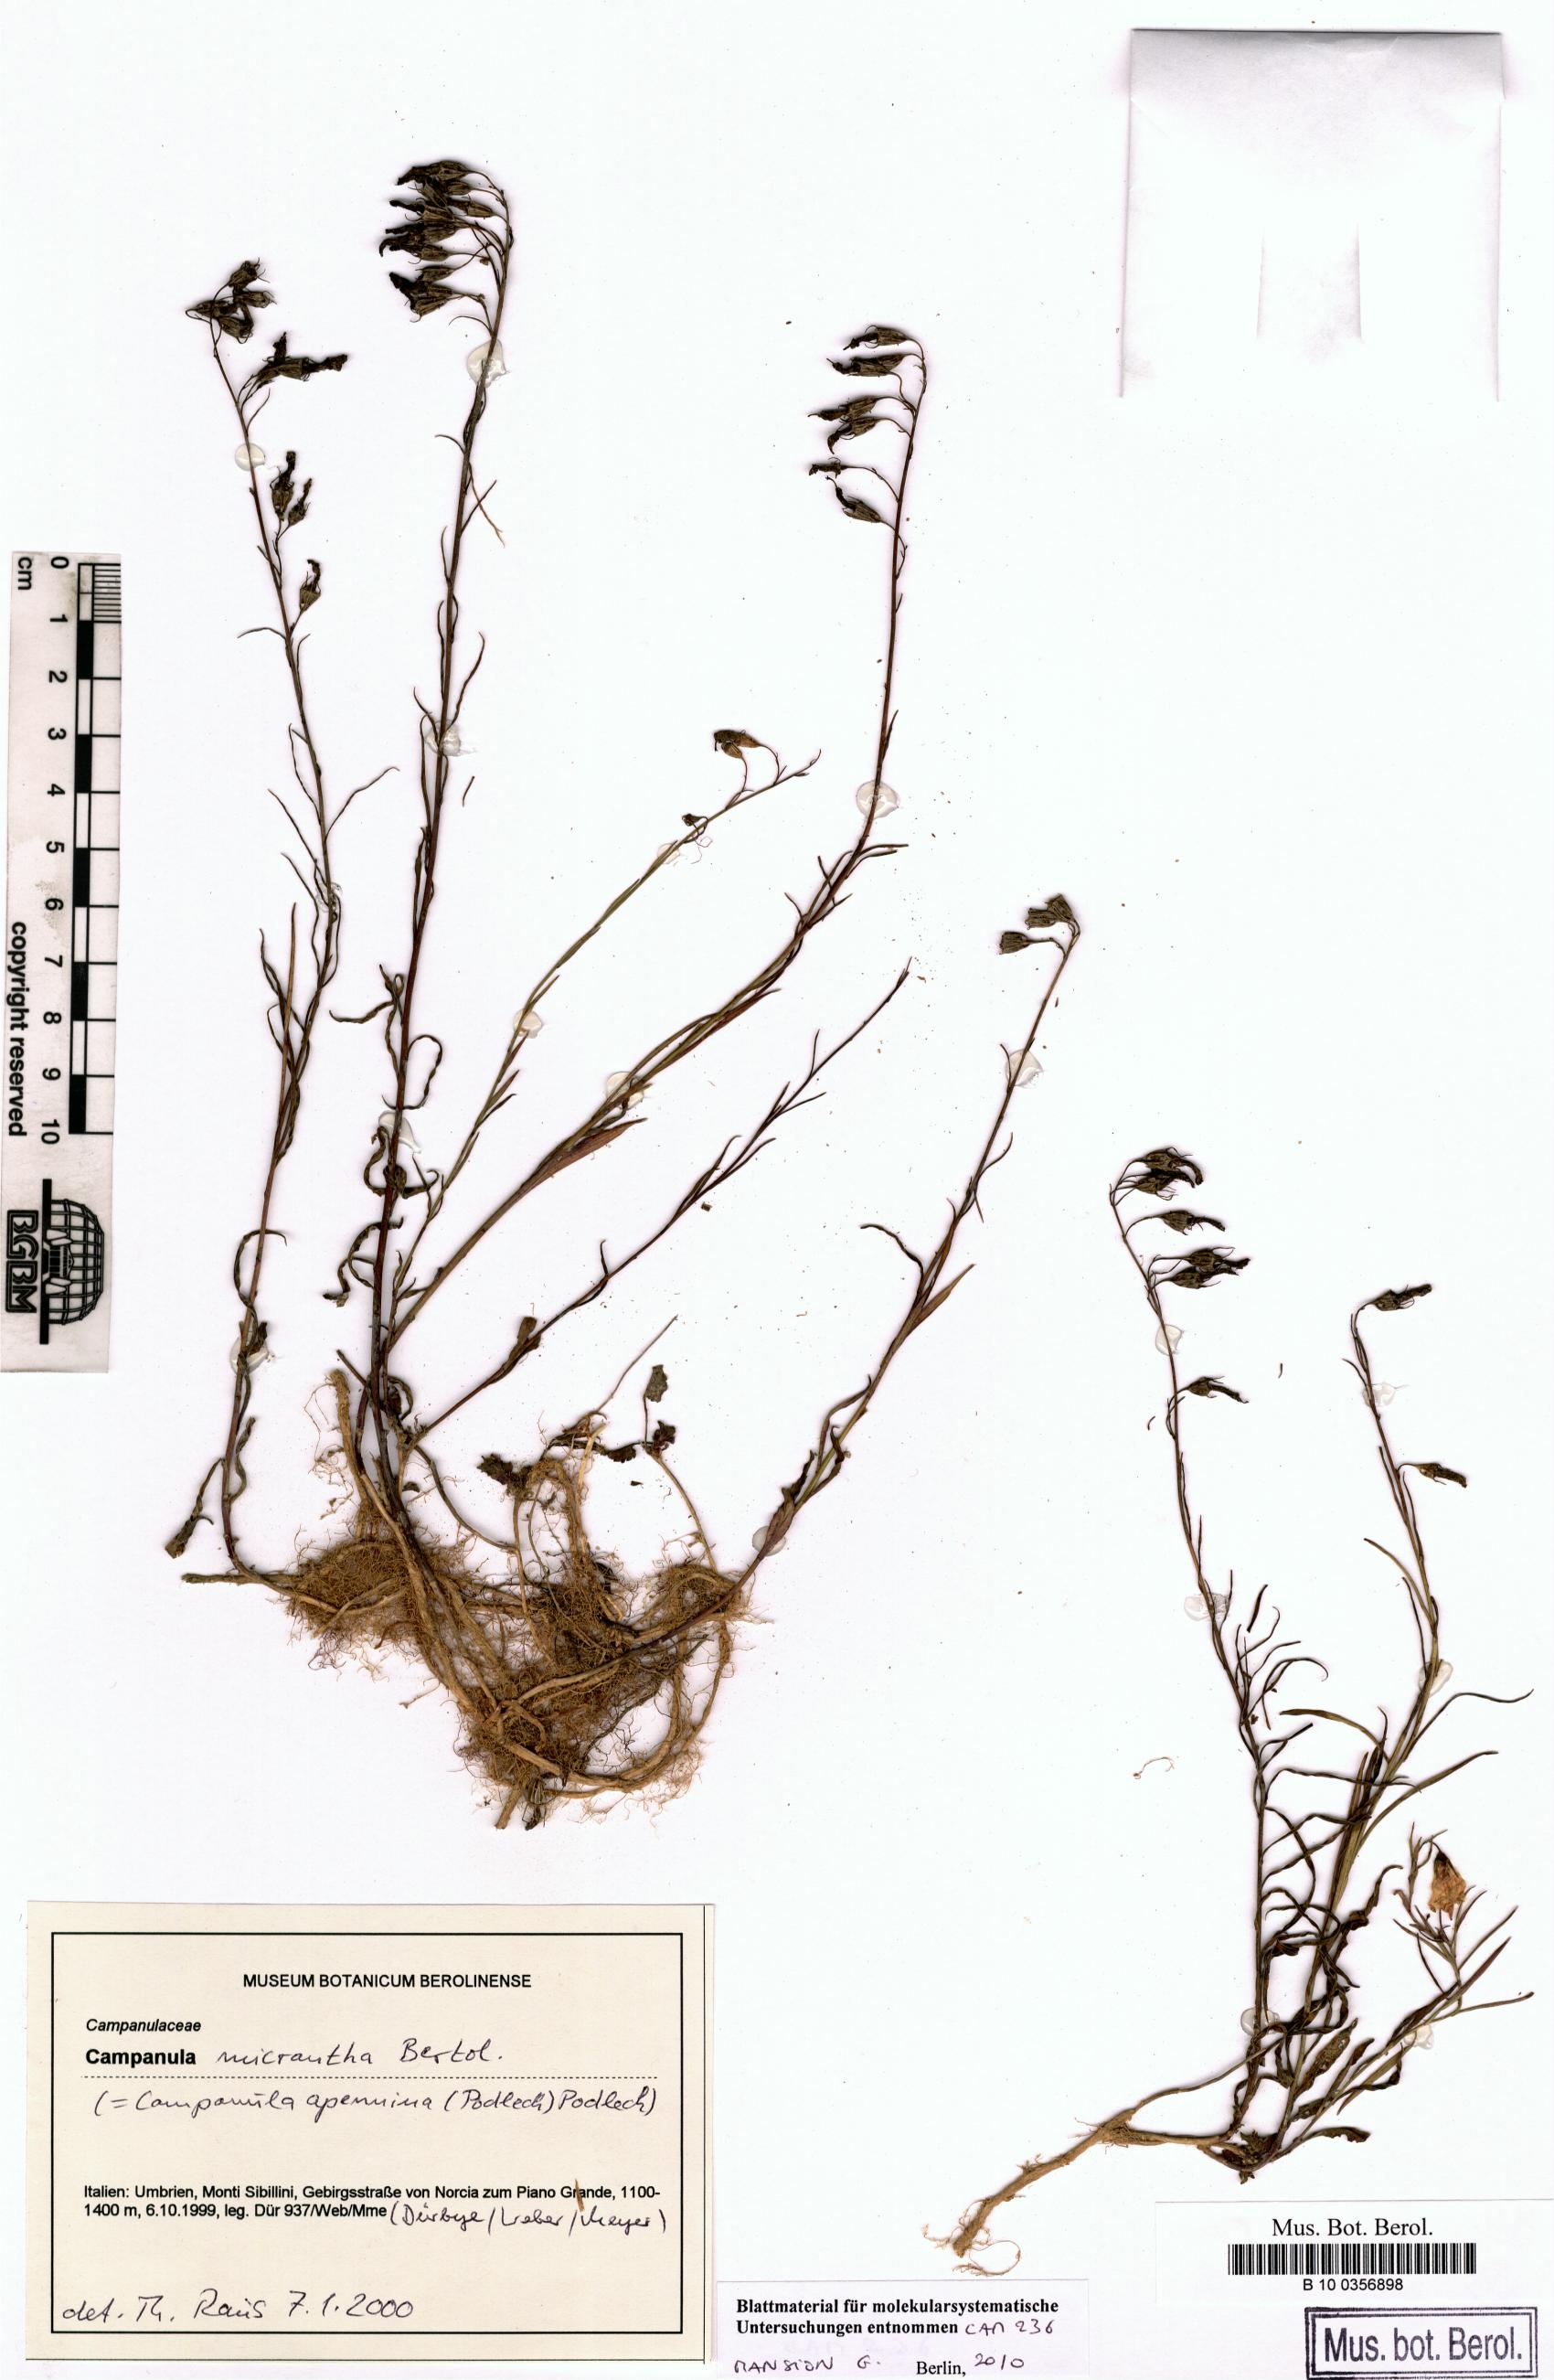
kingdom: Plantae
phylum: Tracheophyta
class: Magnoliopsida
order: Asterales
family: Campanulaceae
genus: Campanula
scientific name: Campanula micrantha
